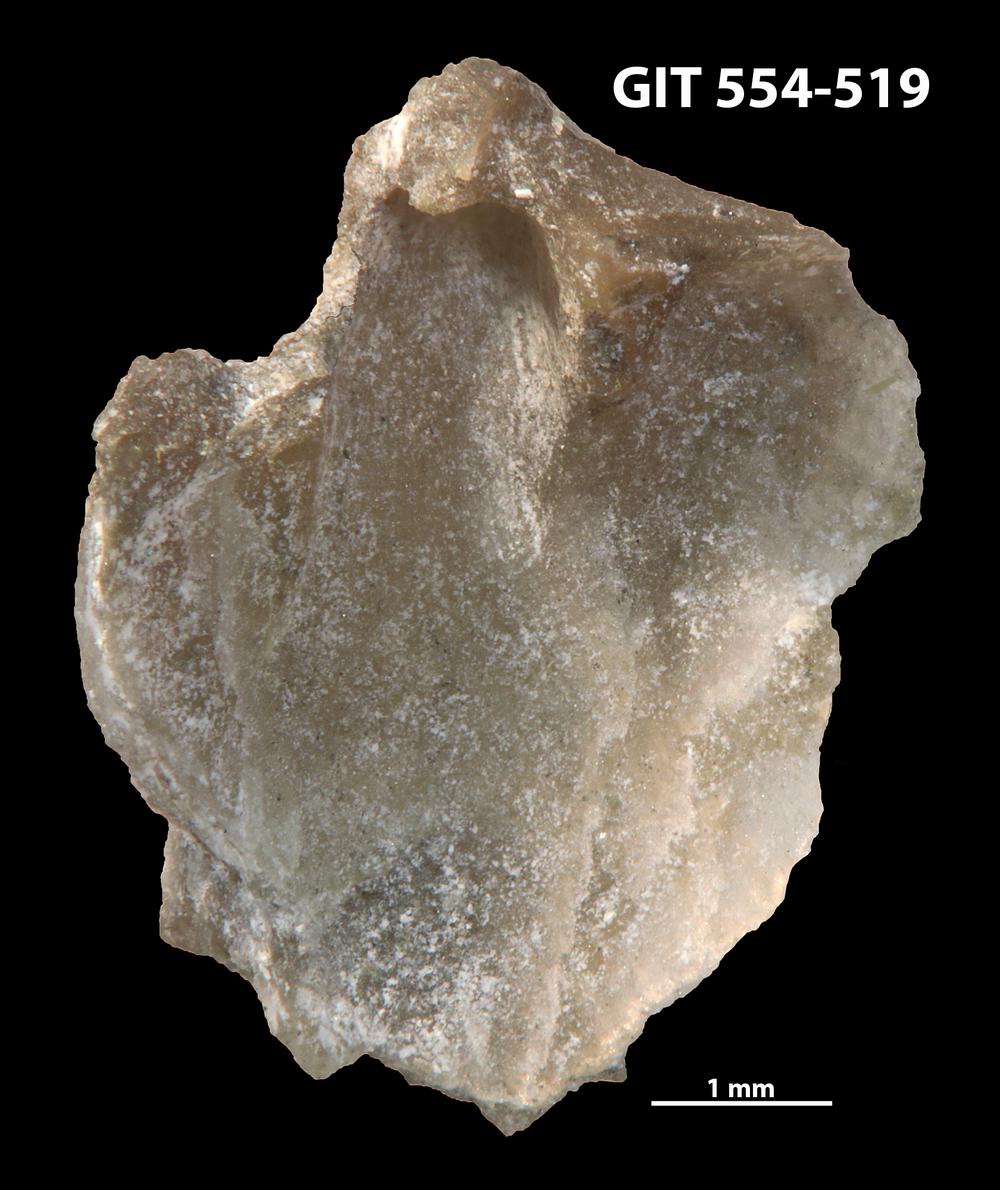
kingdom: Animalia
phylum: Brachiopoda
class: Rhynchonellata
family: Dalmanellidae
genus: Isorthis
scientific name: Isorthis parvulus
